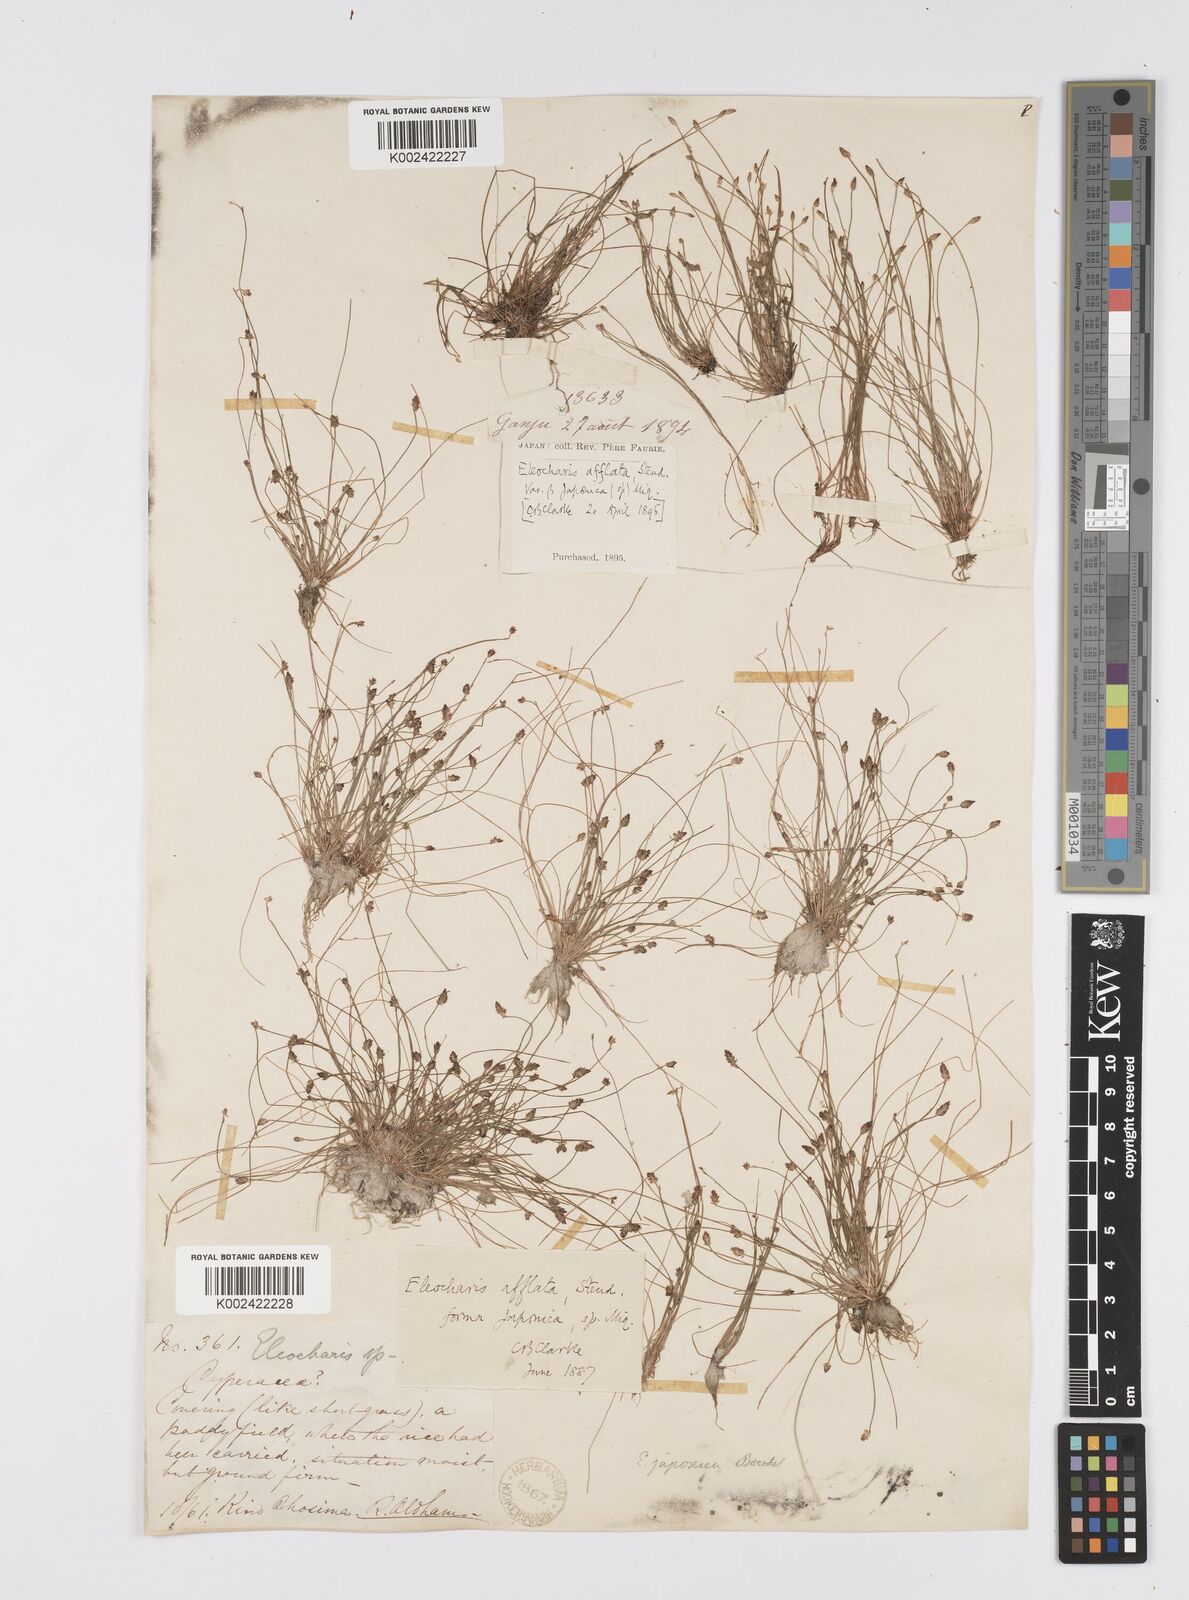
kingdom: Plantae
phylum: Tracheophyta
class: Liliopsida
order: Poales
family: Cyperaceae
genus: Eleocharis
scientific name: Eleocharis pellucida
